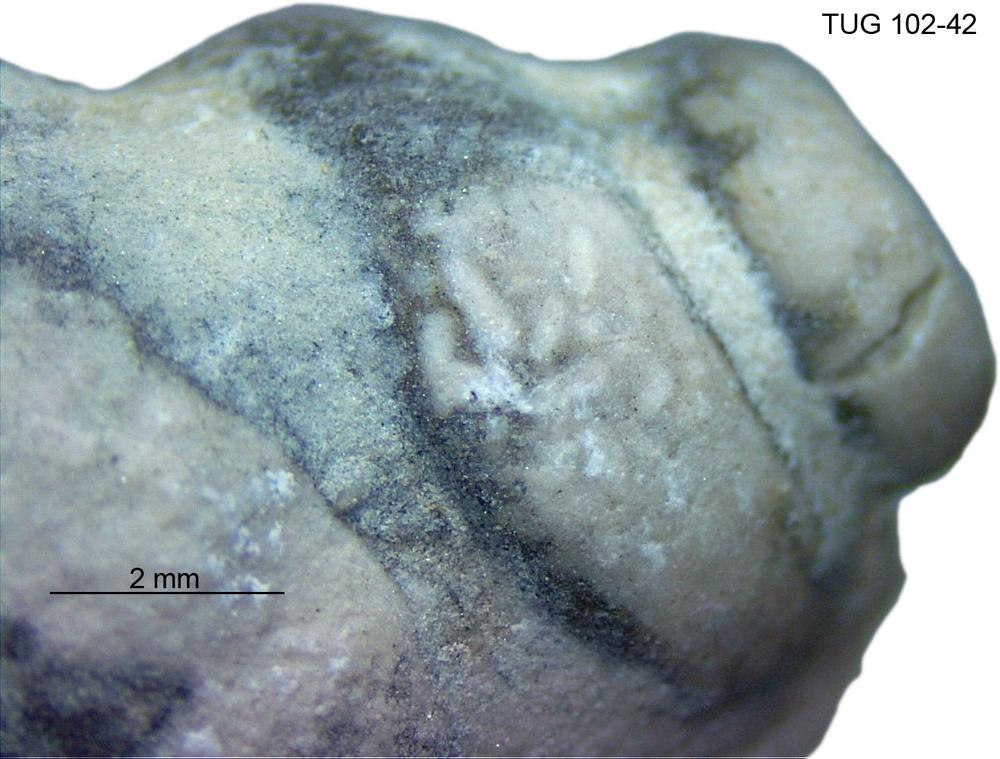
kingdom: Animalia
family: Coprulidae
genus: Coprulus
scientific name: Coprulus
